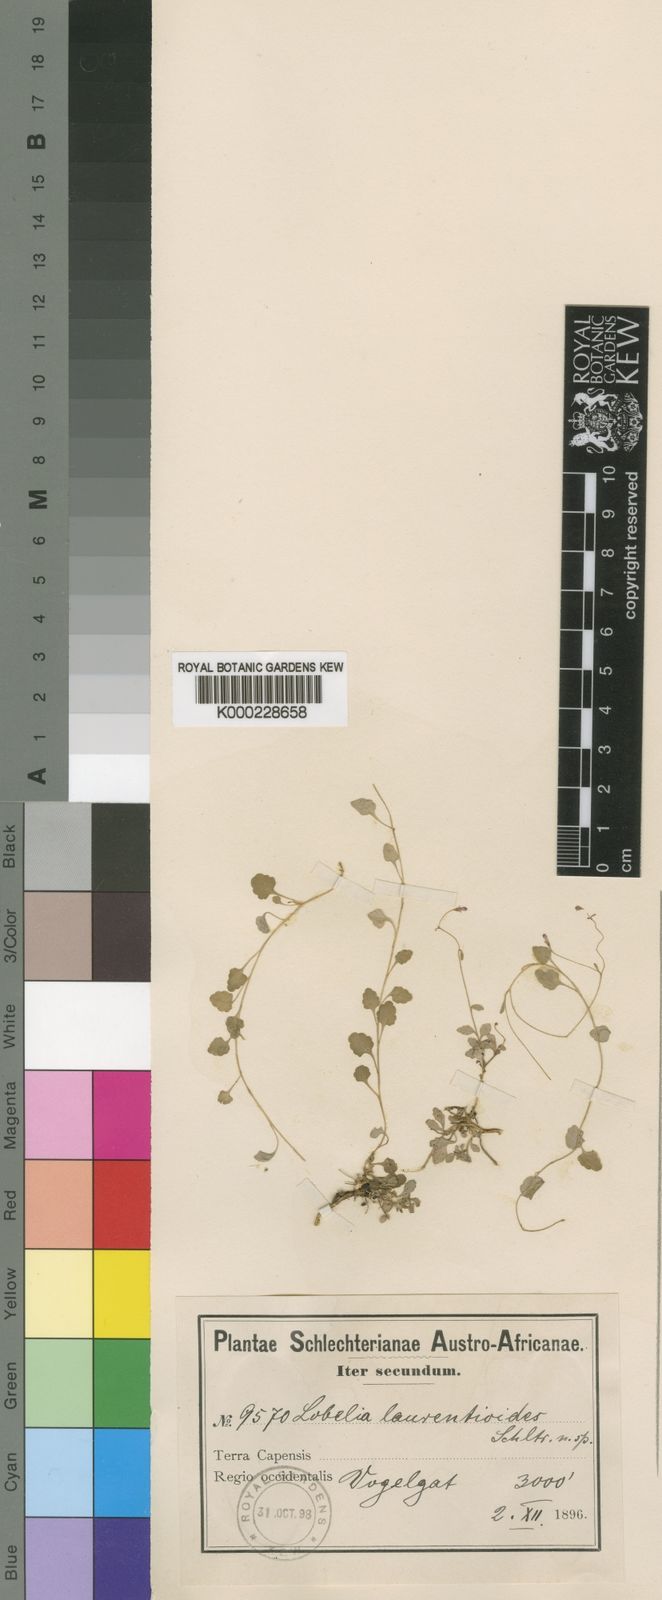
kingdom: Plantae
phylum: Tracheophyta
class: Magnoliopsida
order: Asterales
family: Campanulaceae
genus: Lobelia
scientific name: Lobelia laurentioides
